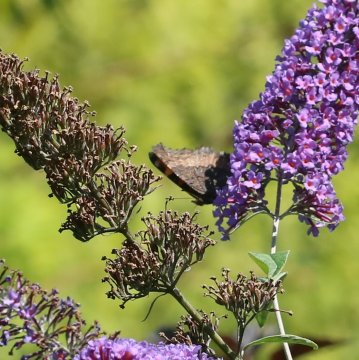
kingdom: Animalia
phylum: Arthropoda
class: Insecta
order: Lepidoptera
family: Nymphalidae
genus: Aglais
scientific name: Aglais milberti
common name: Milbert's Tortoiseshell
